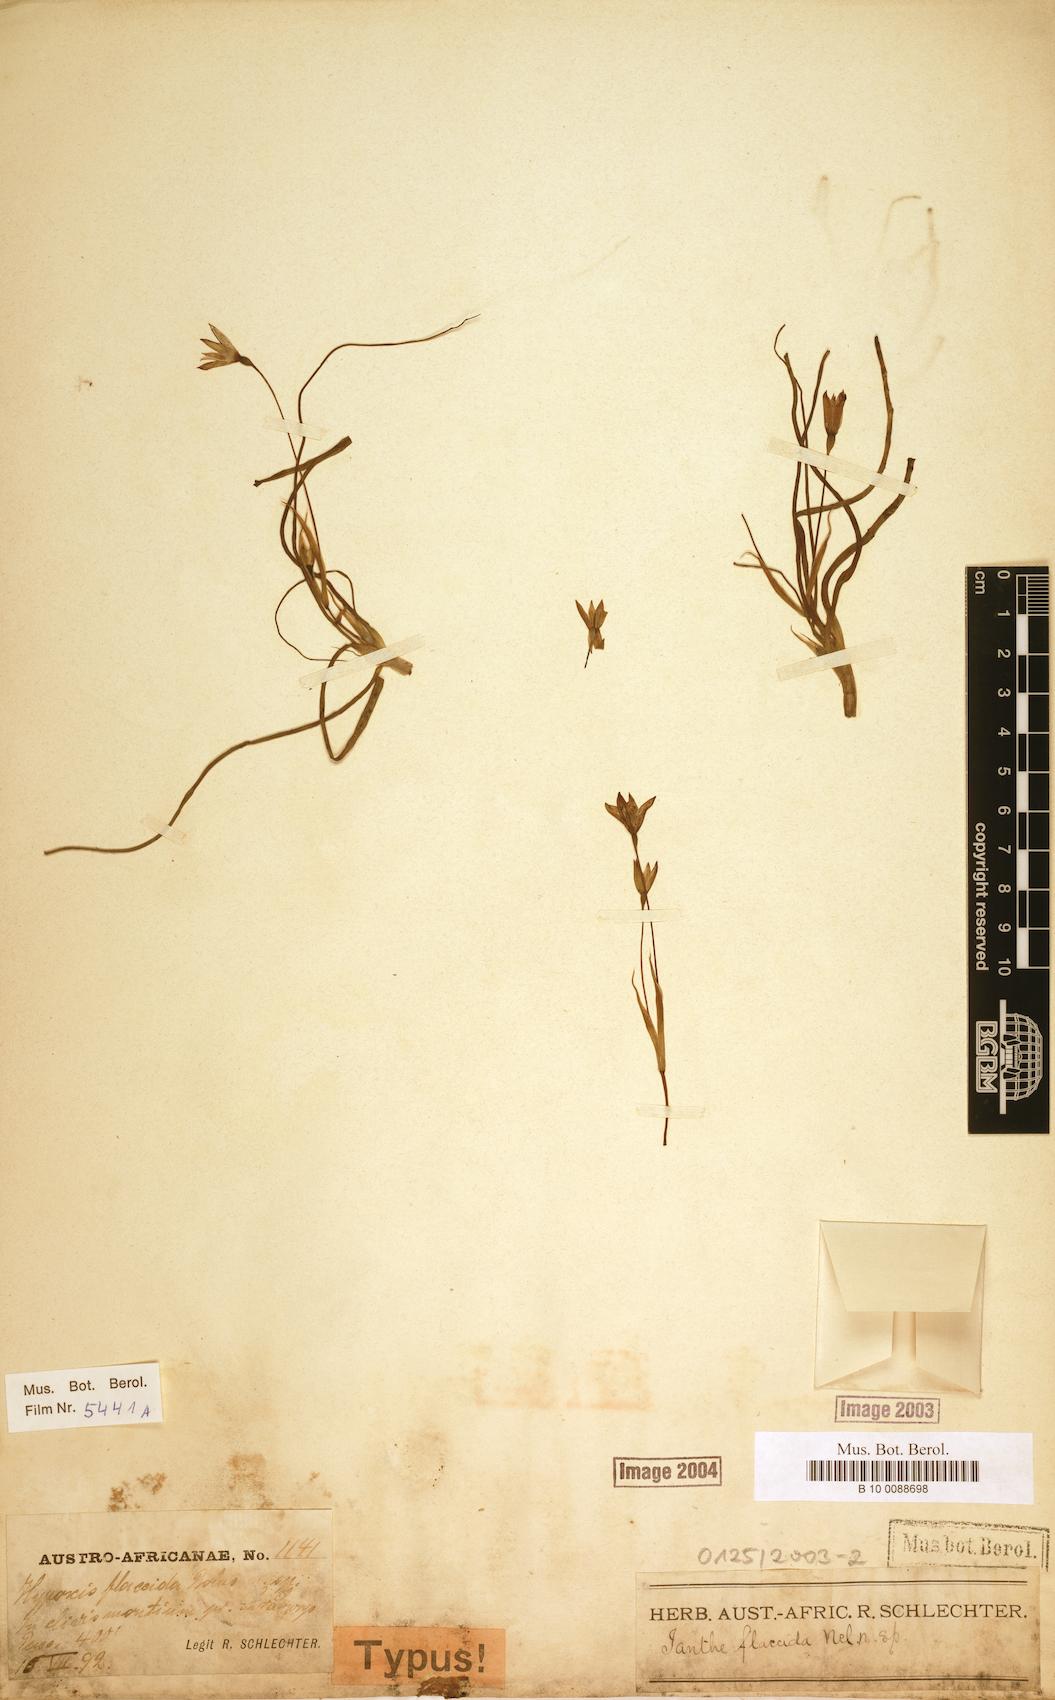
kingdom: Plantae
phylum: Tracheophyta
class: Liliopsida
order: Asparagales
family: Hypoxidaceae
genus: Pauridia
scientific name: Pauridia flaccida
